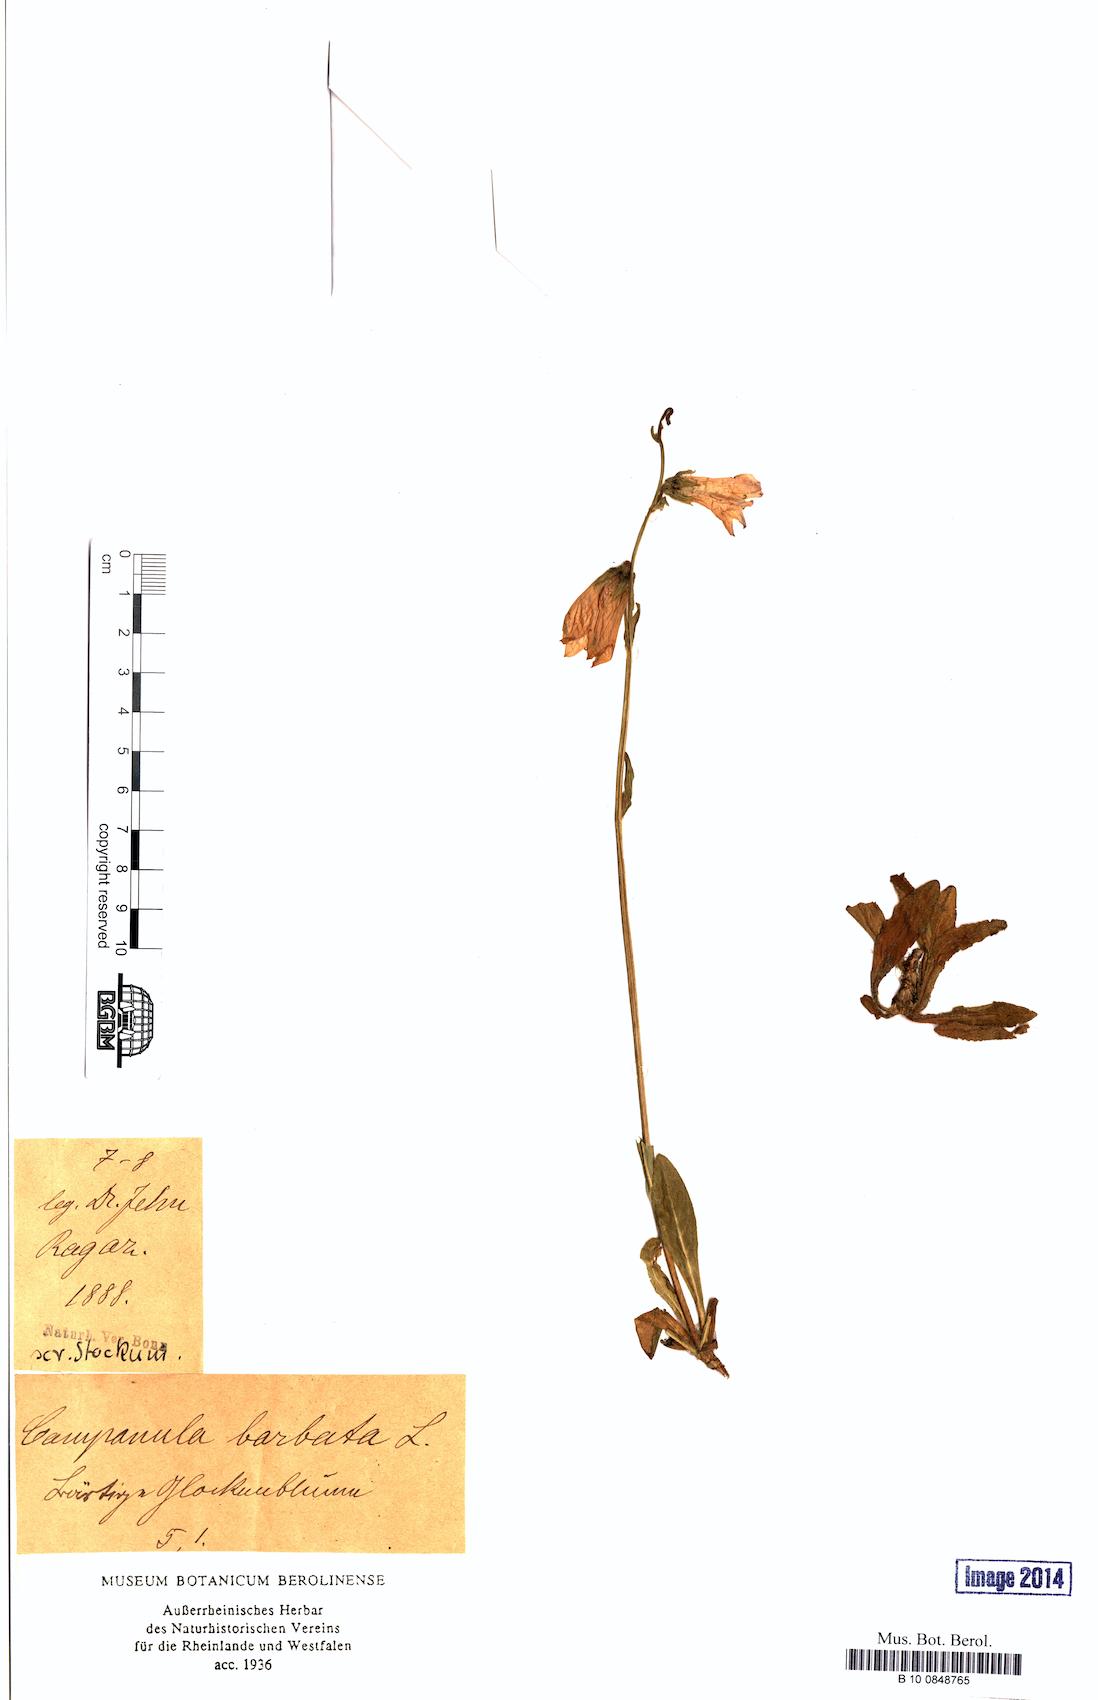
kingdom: Plantae
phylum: Tracheophyta
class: Magnoliopsida
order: Asterales
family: Campanulaceae
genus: Campanula
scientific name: Campanula barbata
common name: Bearded bellflower
